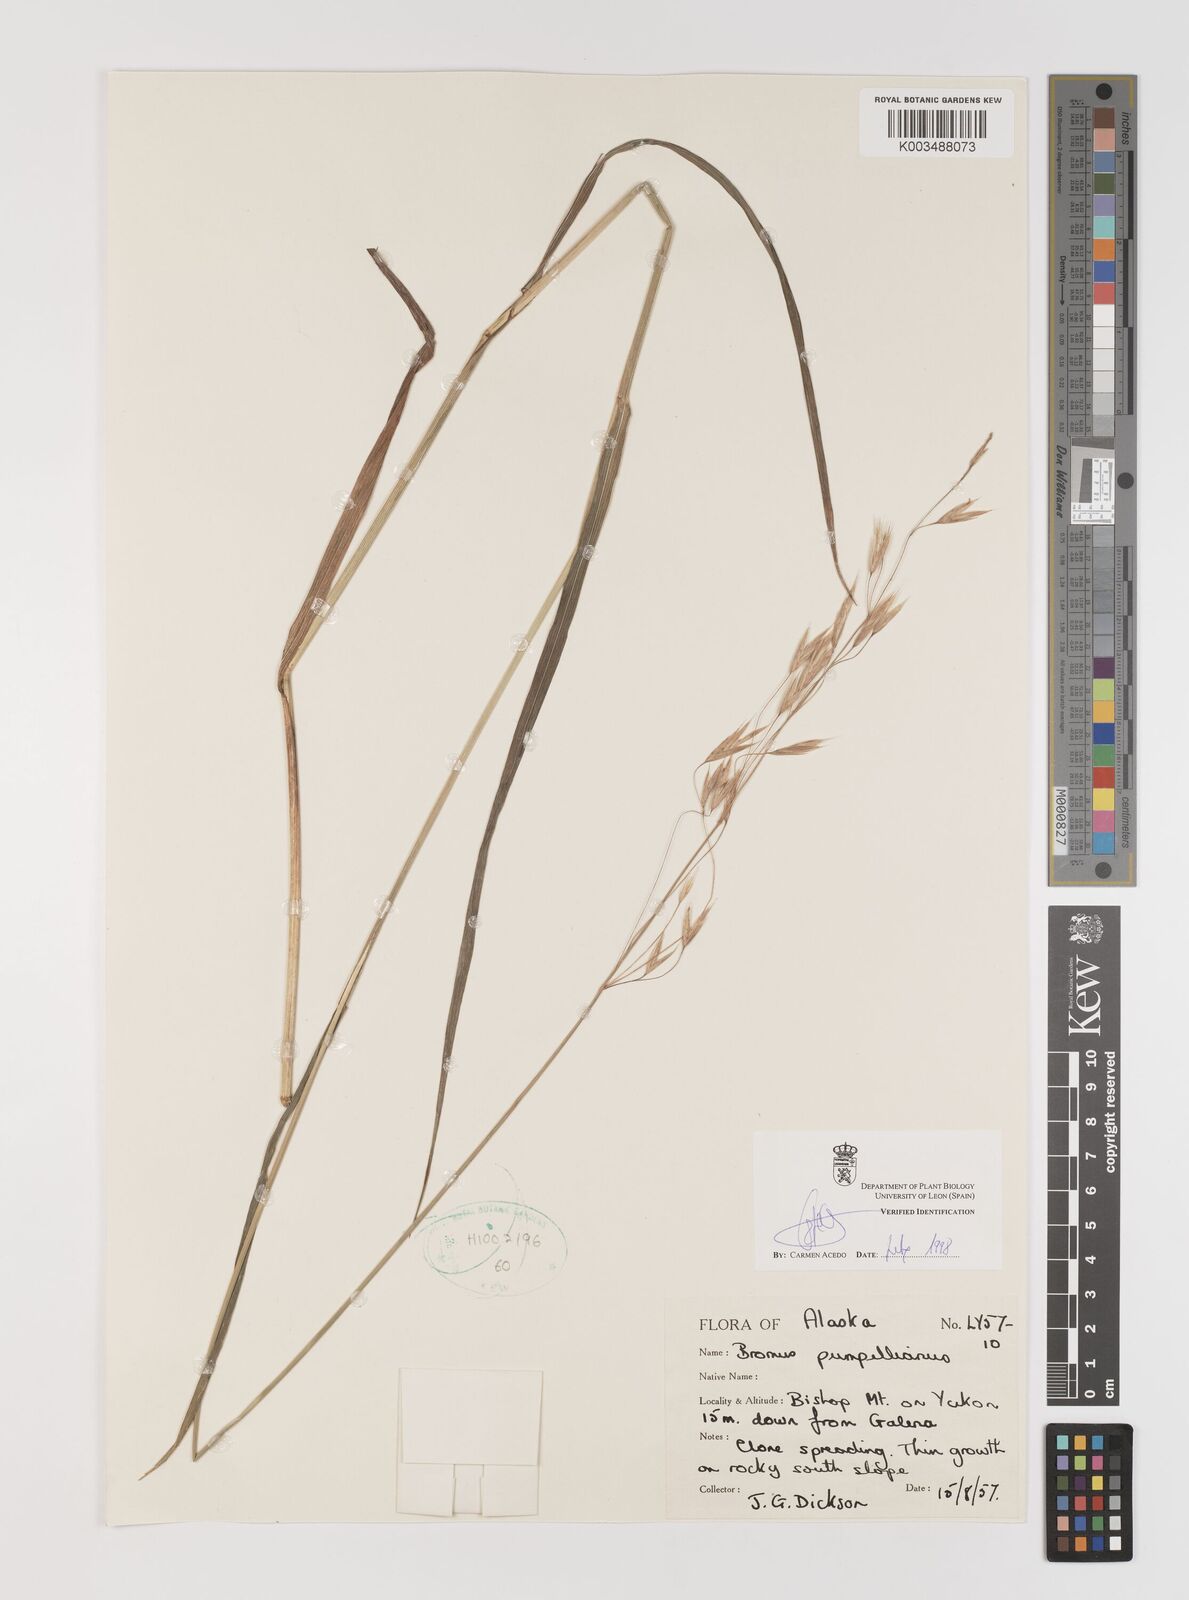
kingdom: Plantae
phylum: Tracheophyta
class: Liliopsida
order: Poales
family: Poaceae
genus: Bromus
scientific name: Bromus pumpellianus
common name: Pumpelly's brome
